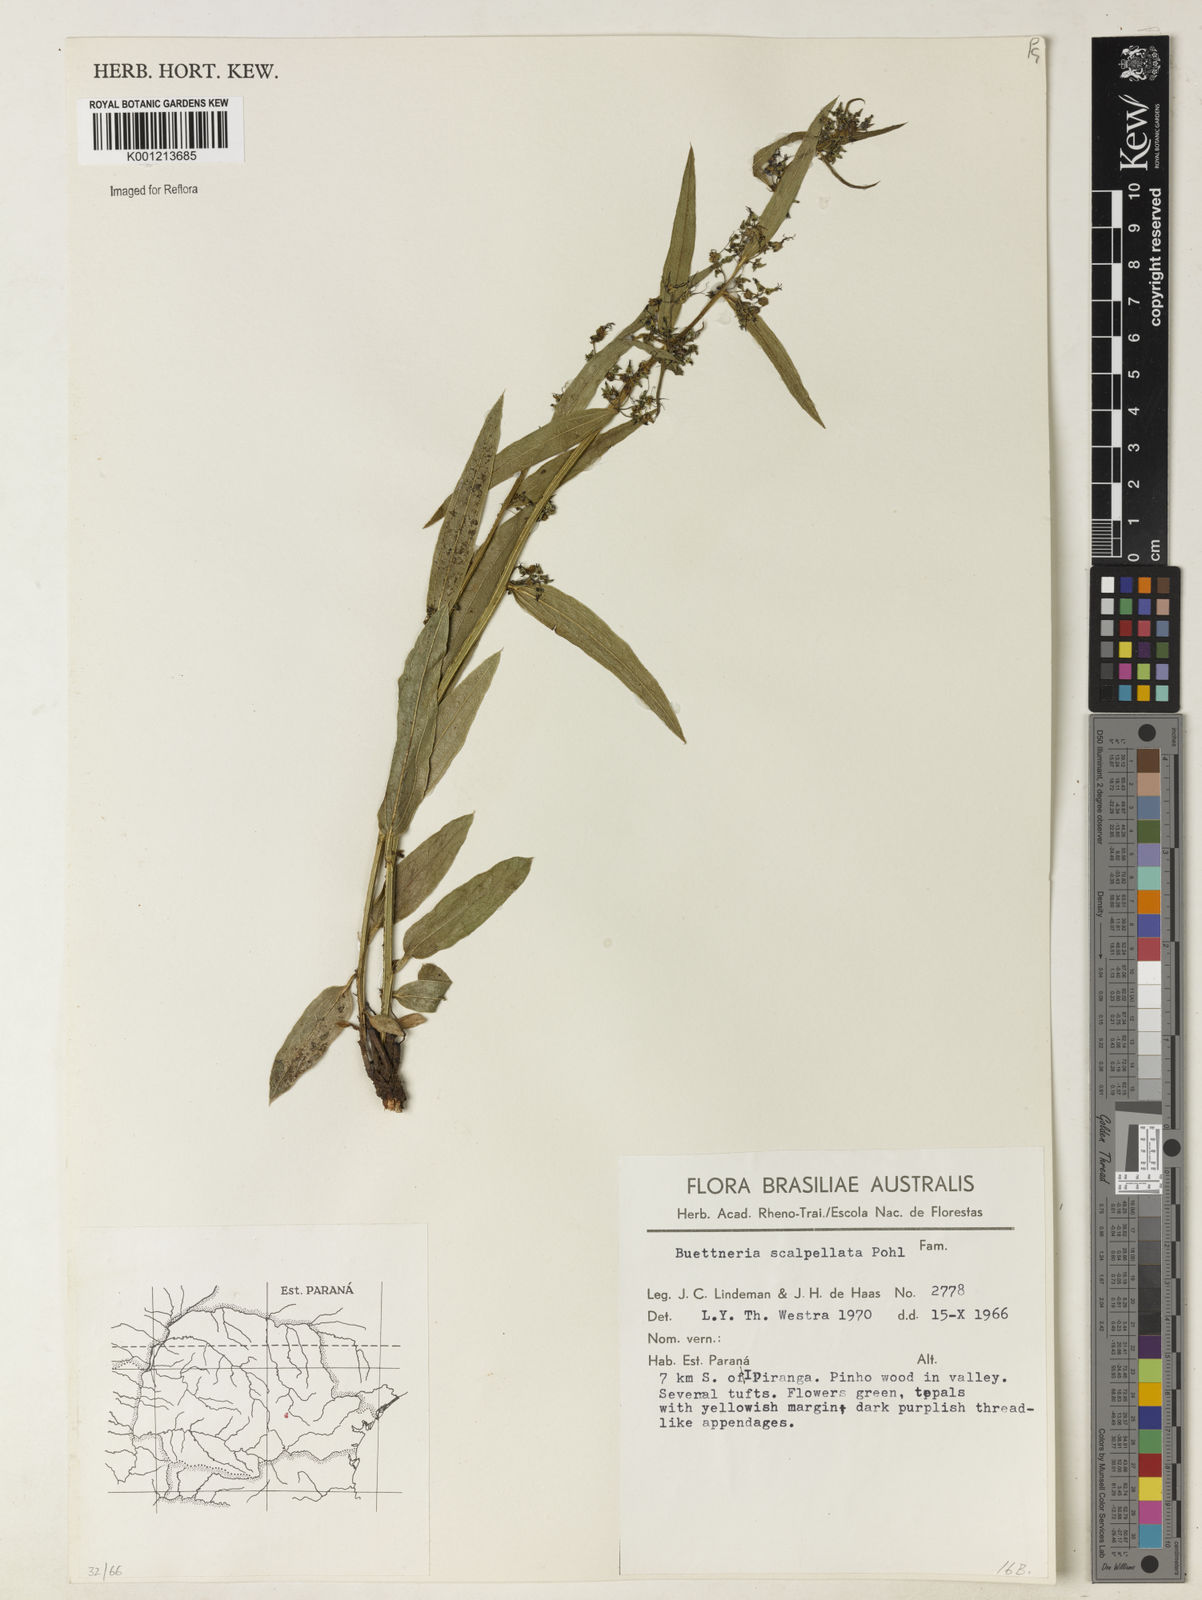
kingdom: Plantae
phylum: Tracheophyta
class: Magnoliopsida
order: Malvales
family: Malvaceae
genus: Byttneria
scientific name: Byttneria scalpellata
